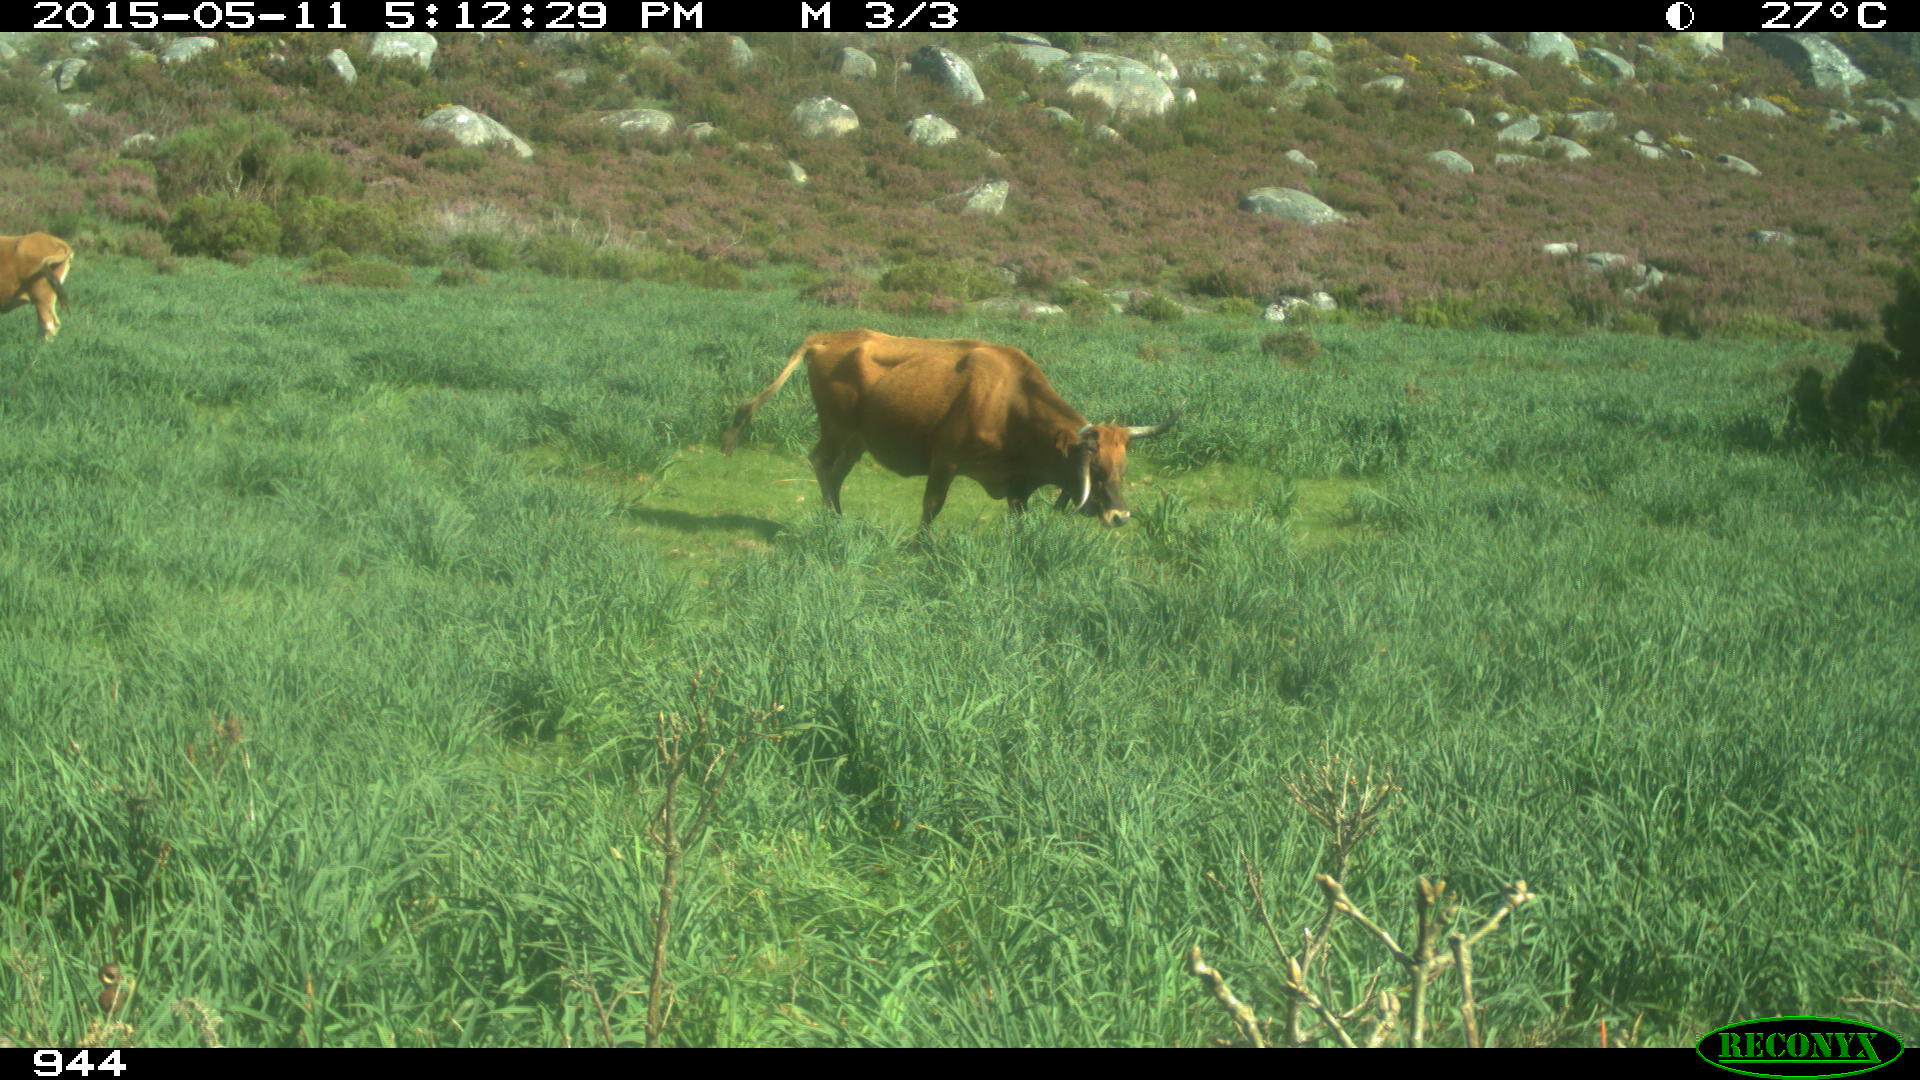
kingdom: Animalia
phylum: Chordata
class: Mammalia
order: Artiodactyla
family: Bovidae
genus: Bos
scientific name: Bos taurus
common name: Domesticated cattle
